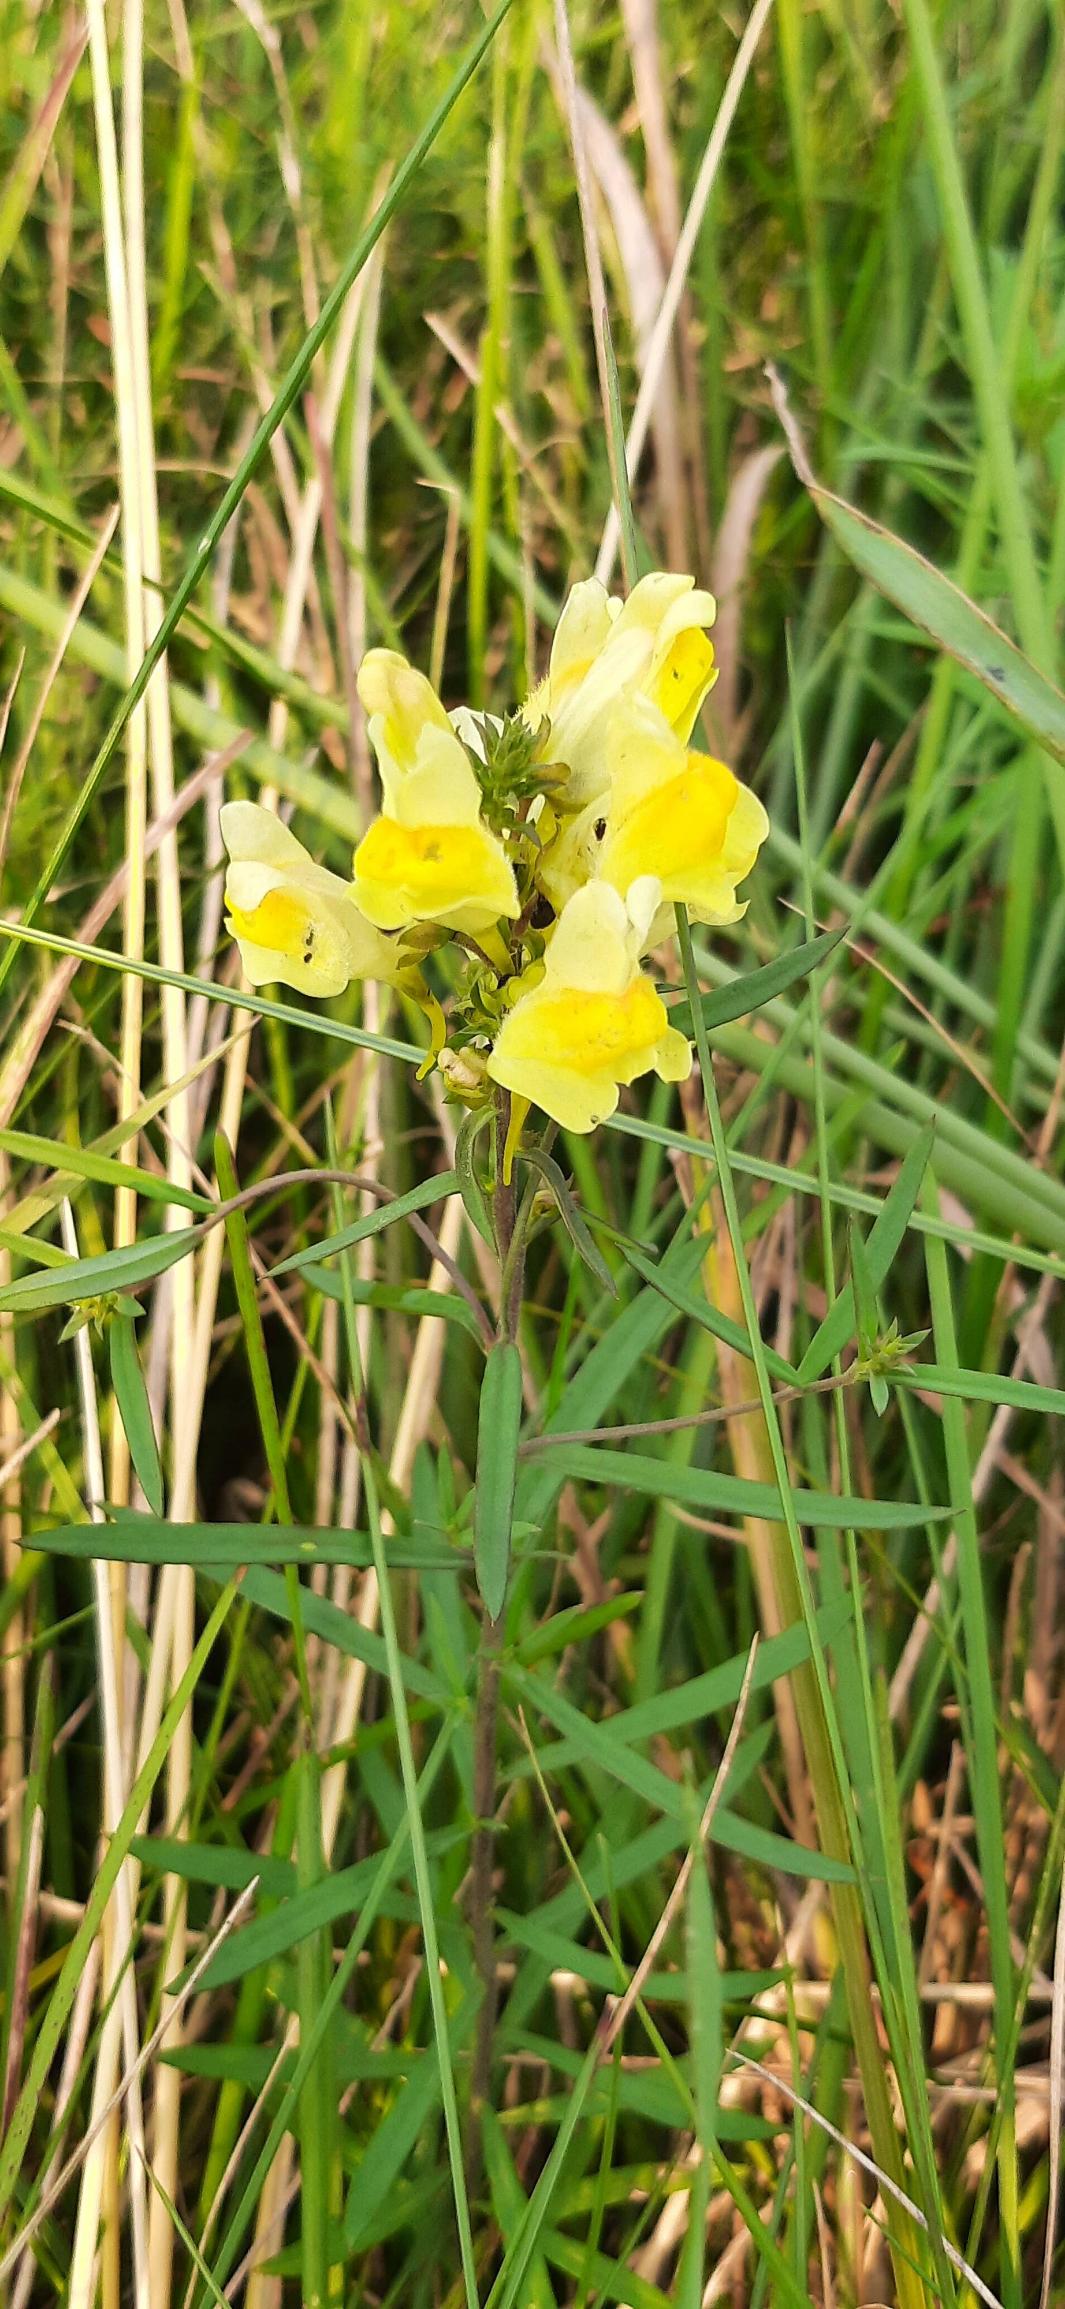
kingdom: Plantae
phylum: Tracheophyta
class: Magnoliopsida
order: Lamiales
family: Plantaginaceae
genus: Linaria
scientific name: Linaria vulgaris
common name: Almindelig torskemund
